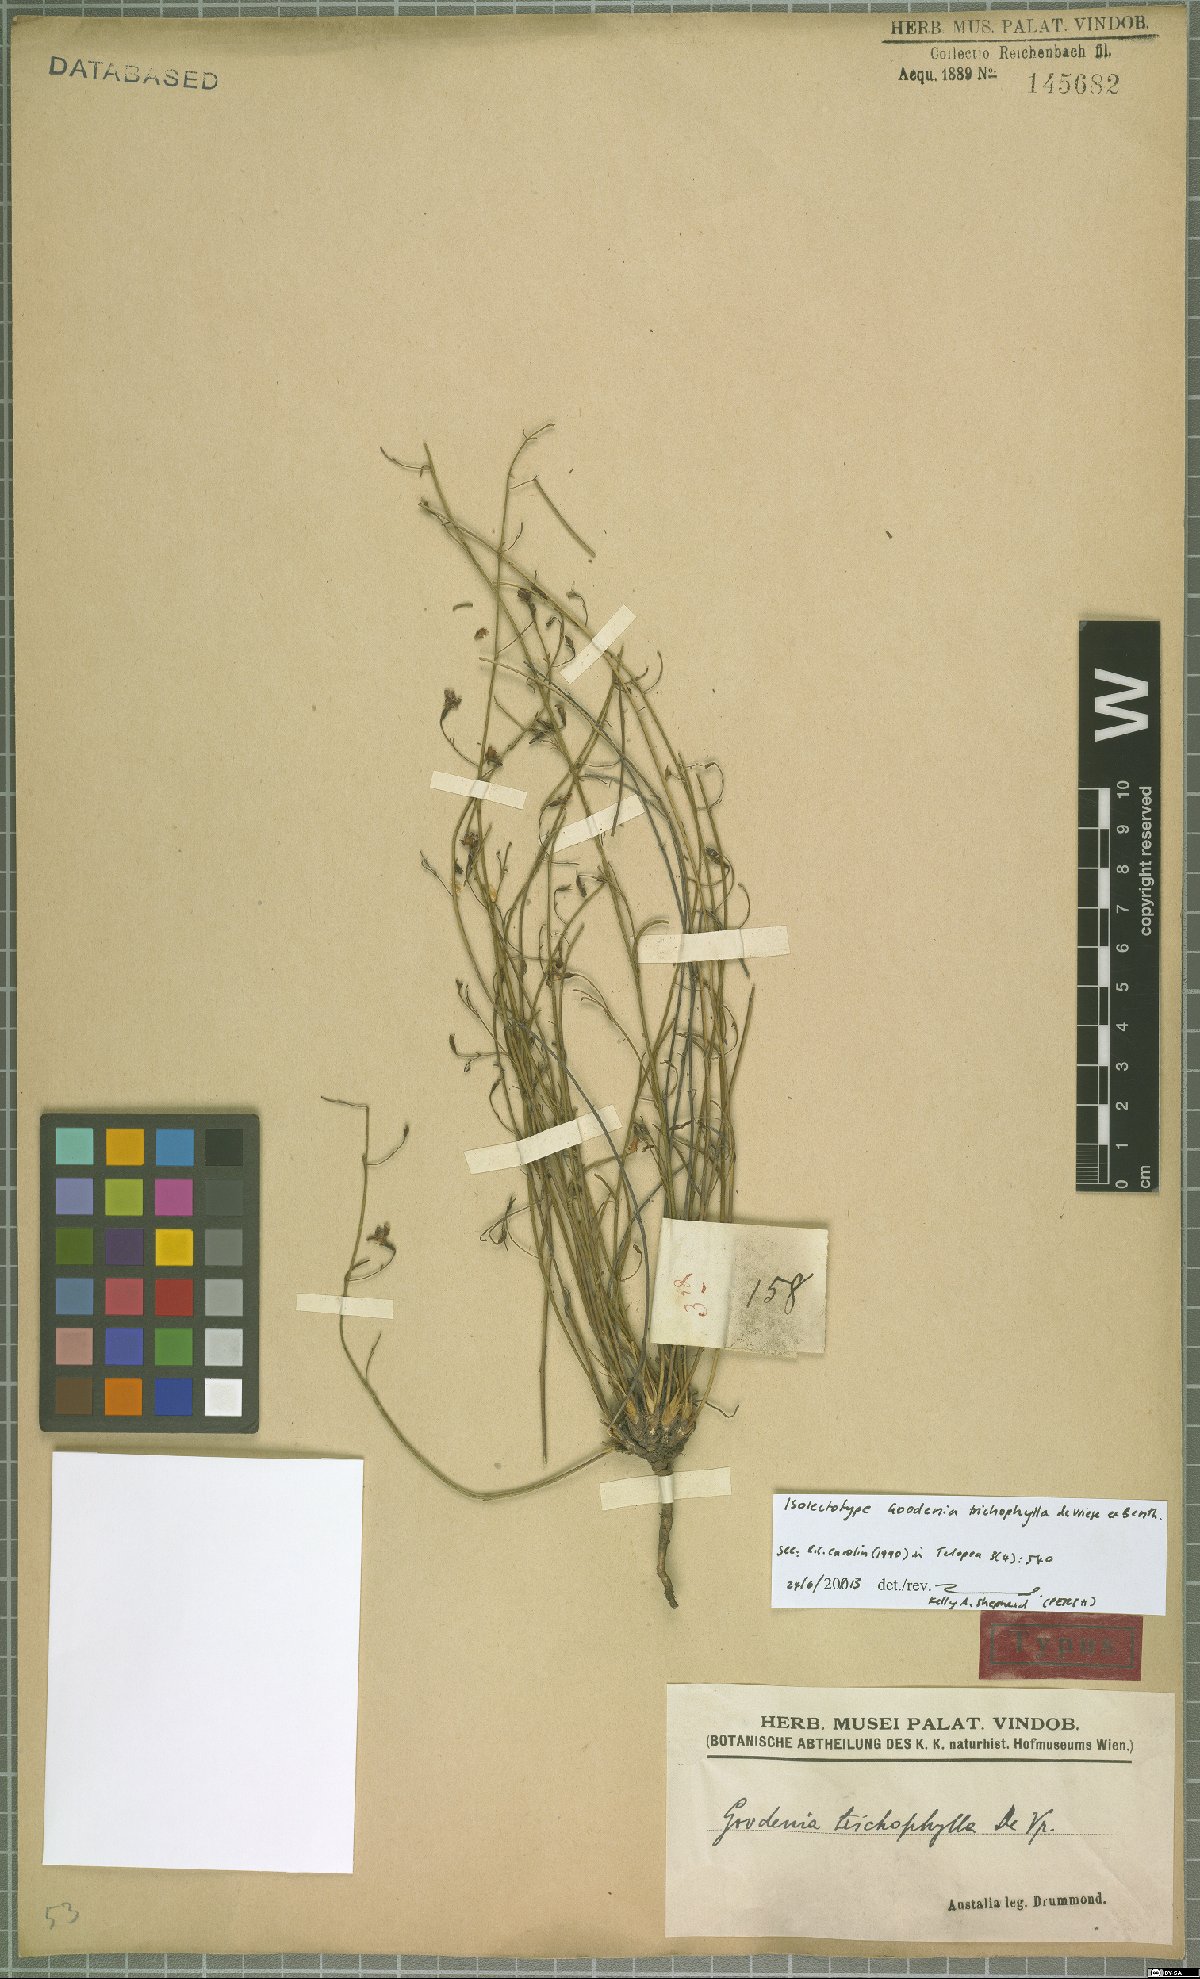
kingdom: Plantae
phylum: Tracheophyta
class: Magnoliopsida
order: Asterales
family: Goodeniaceae
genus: Goodenia
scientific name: Goodenia trichophylla
